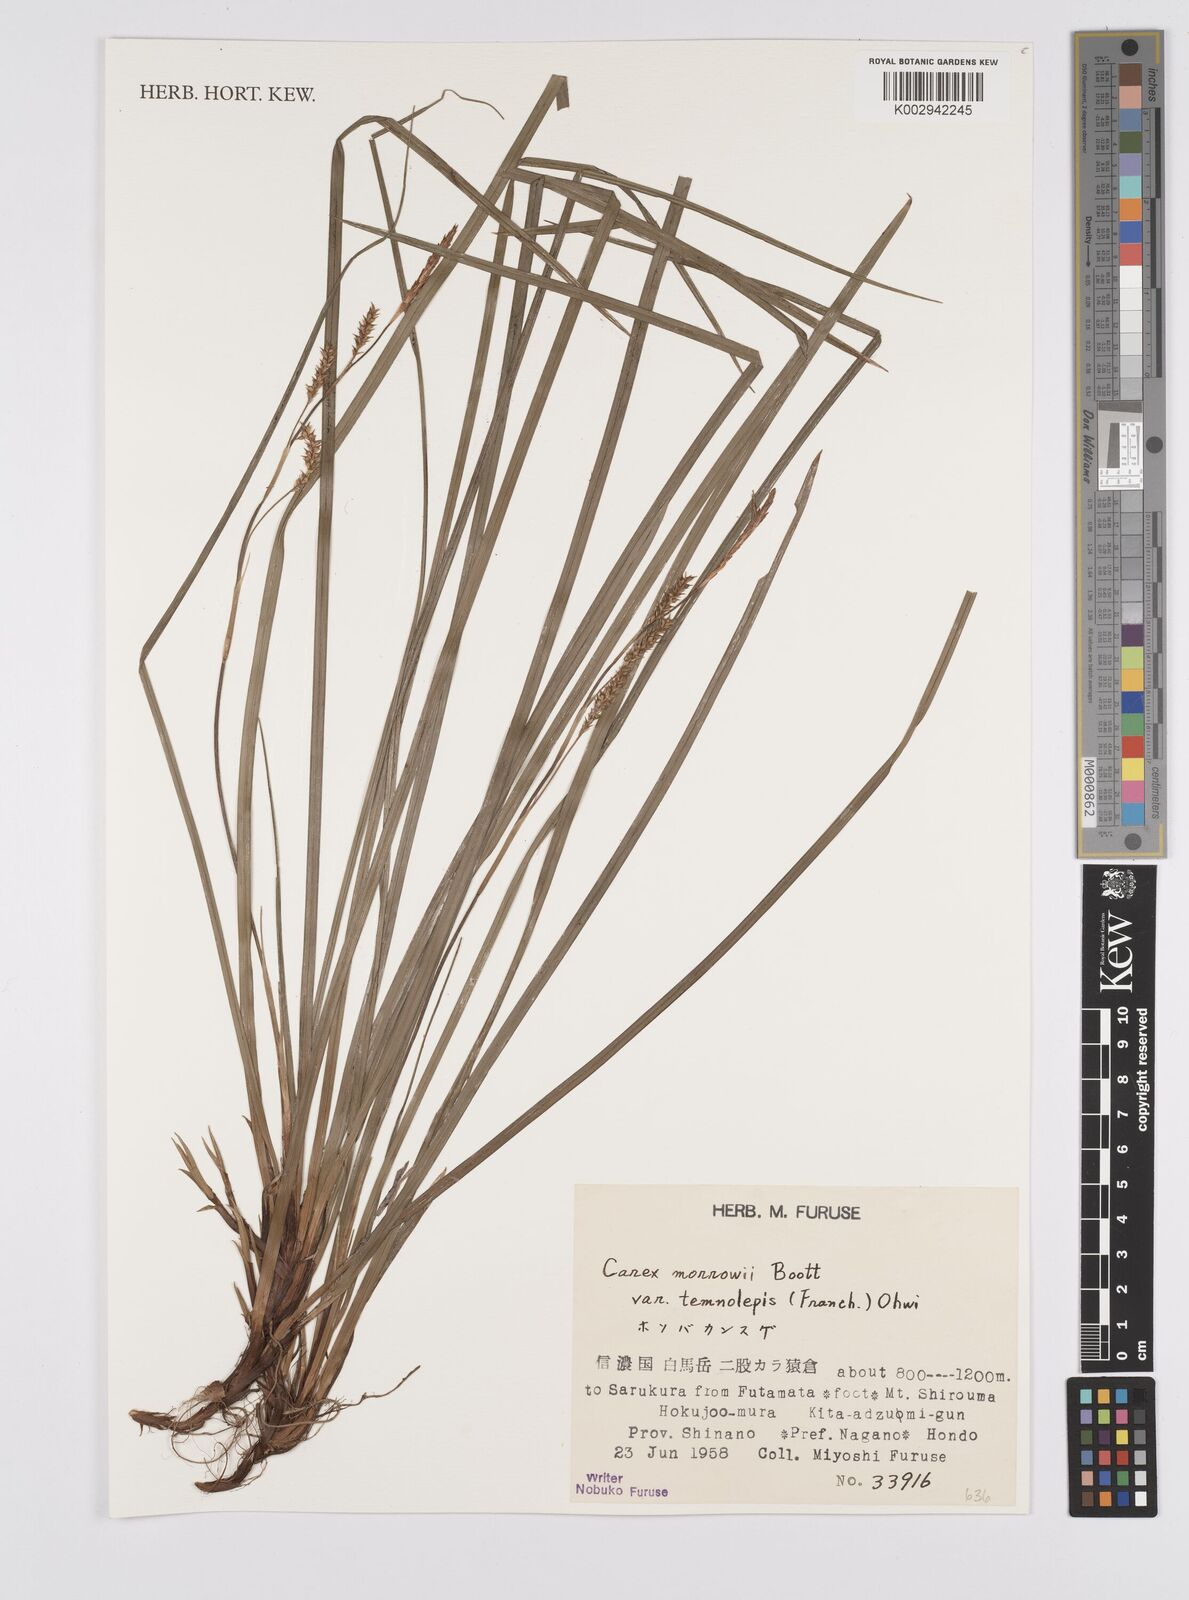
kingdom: Plantae
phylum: Tracheophyta
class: Liliopsida
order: Poales
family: Cyperaceae
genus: Carex
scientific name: Carex morrowii
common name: Japanese sedge
